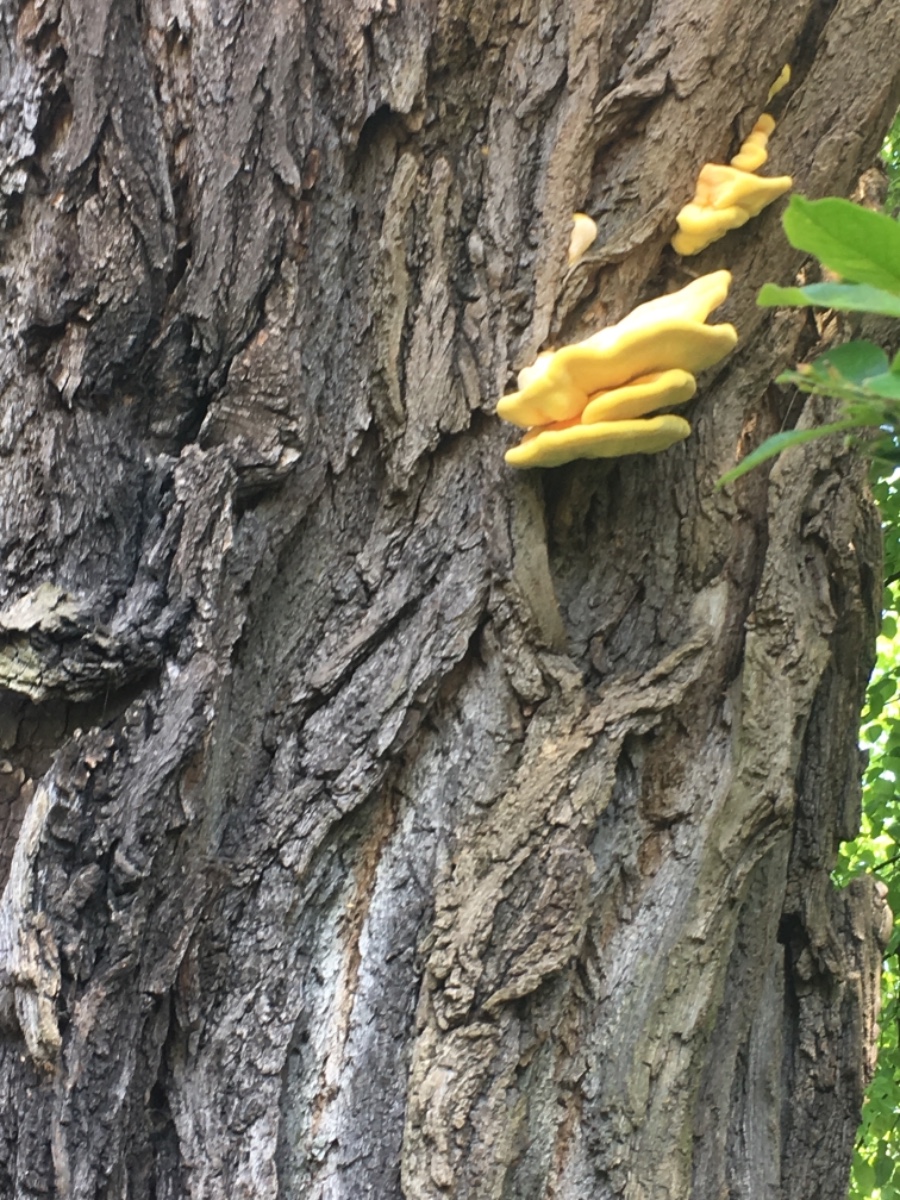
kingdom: Fungi
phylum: Basidiomycota
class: Agaricomycetes
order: Polyporales
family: Laetiporaceae
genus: Laetiporus
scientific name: Laetiporus sulphureus
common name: svovlporesvamp
